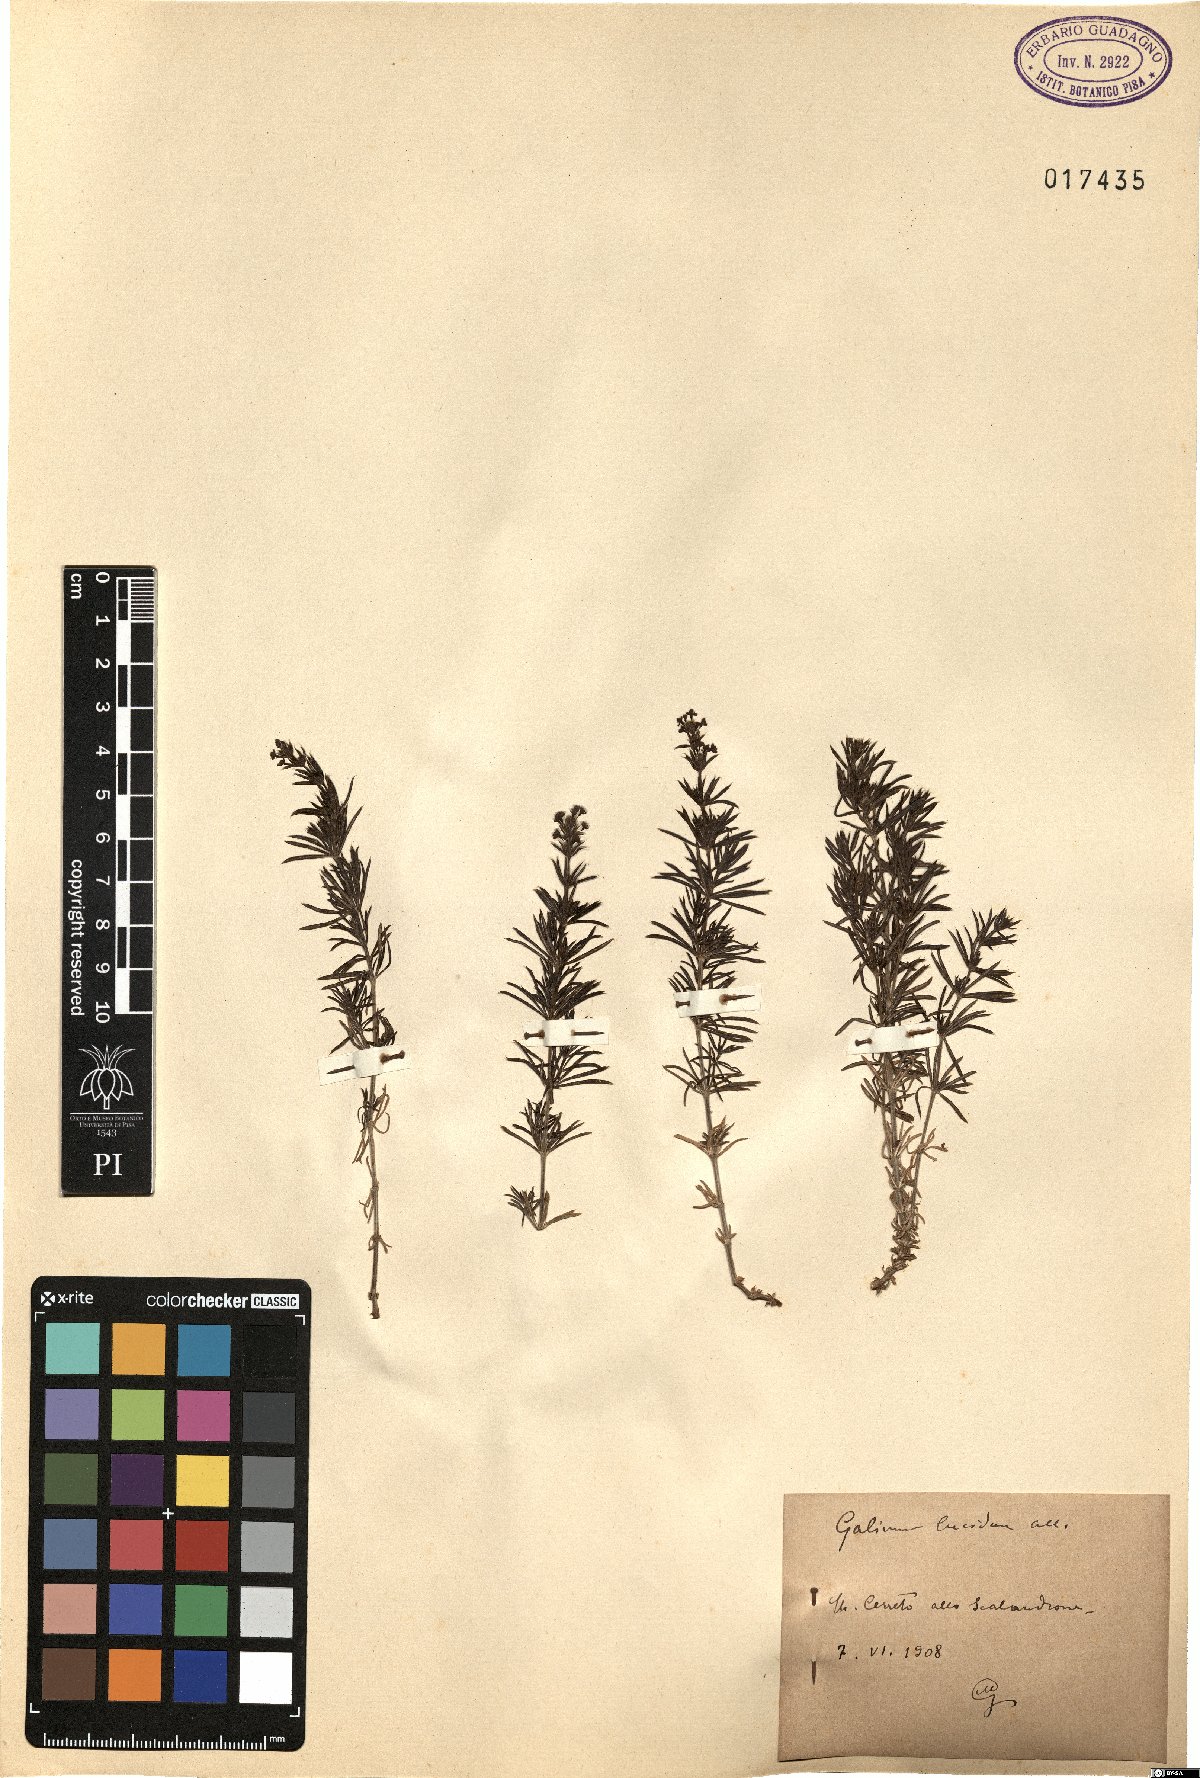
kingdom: Plantae
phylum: Tracheophyta
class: Magnoliopsida
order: Gentianales
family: Rubiaceae
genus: Galium
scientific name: Galium lucidum
